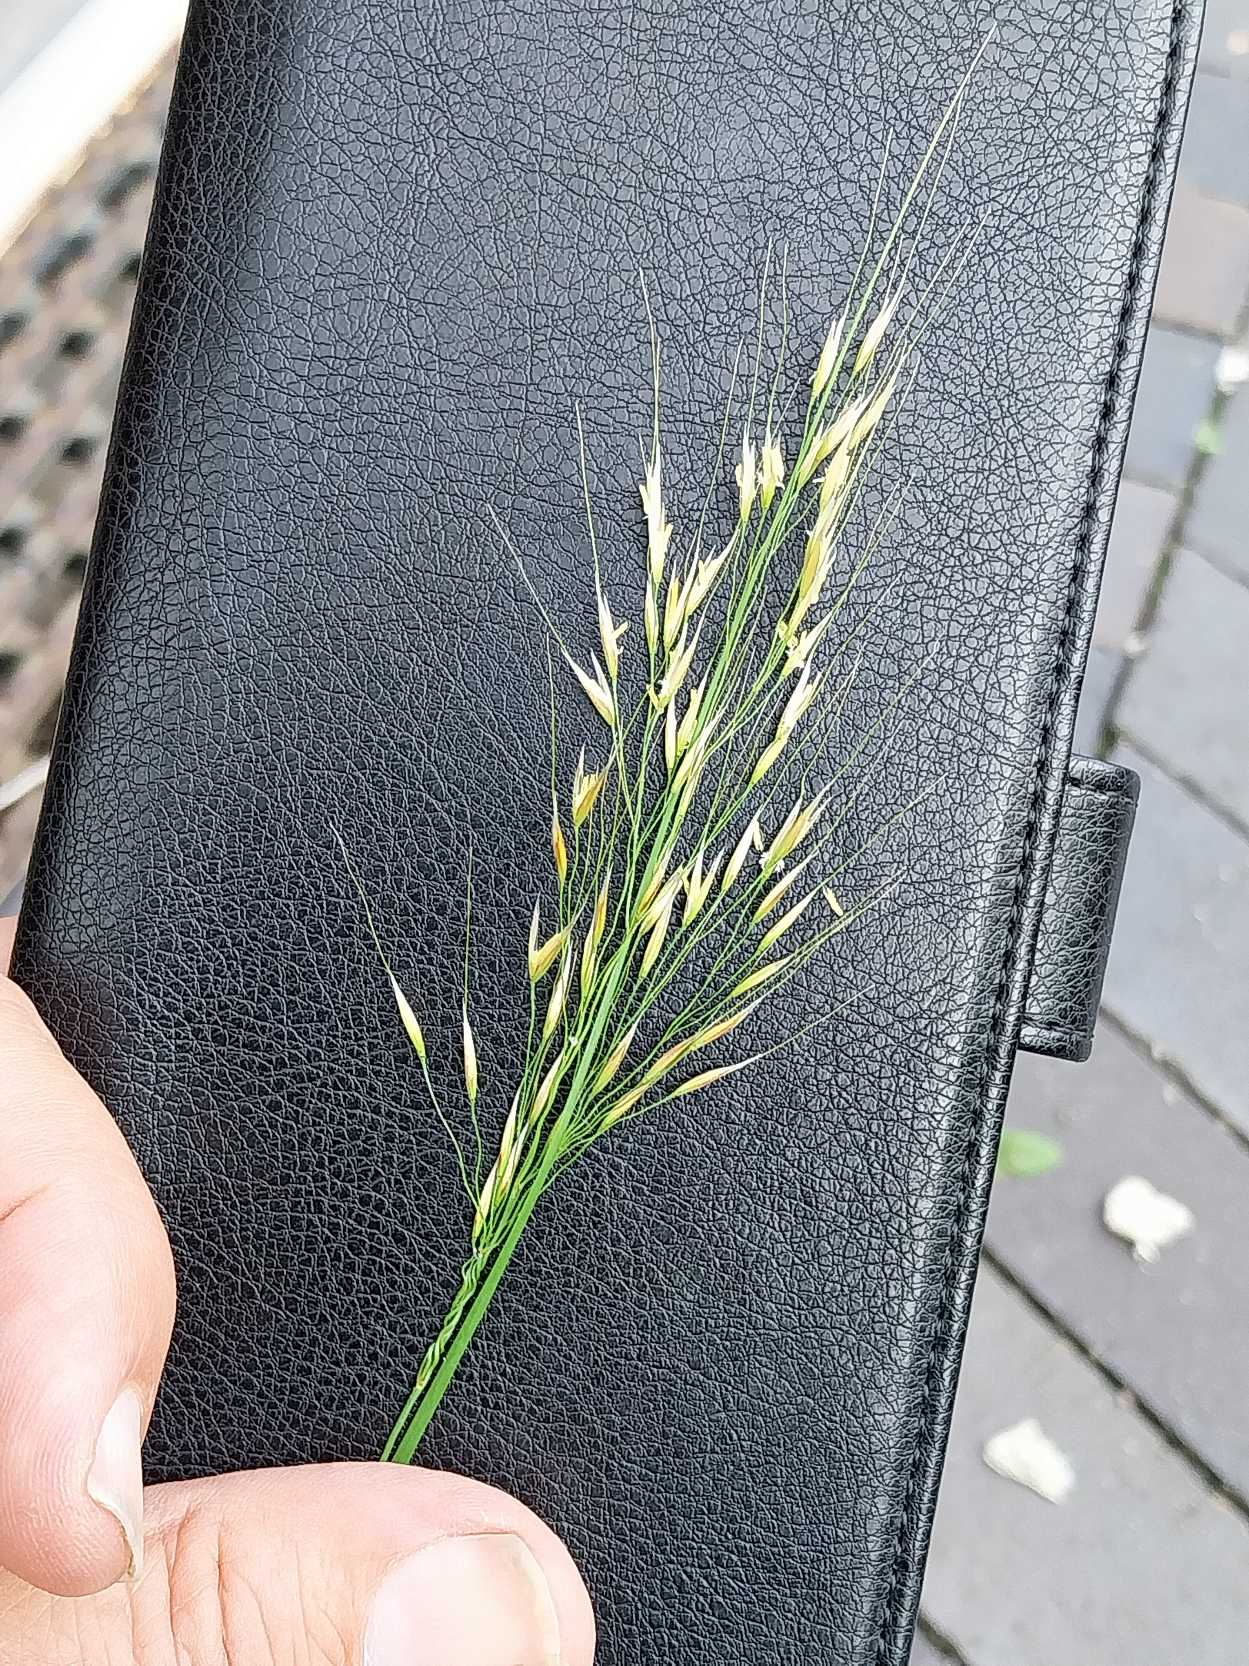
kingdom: Plantae
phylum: Tracheophyta
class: Liliopsida
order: Poales
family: Poaceae
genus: Achnatherum
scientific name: Achnatherum calamagrostis
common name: Sølvaksgræs
